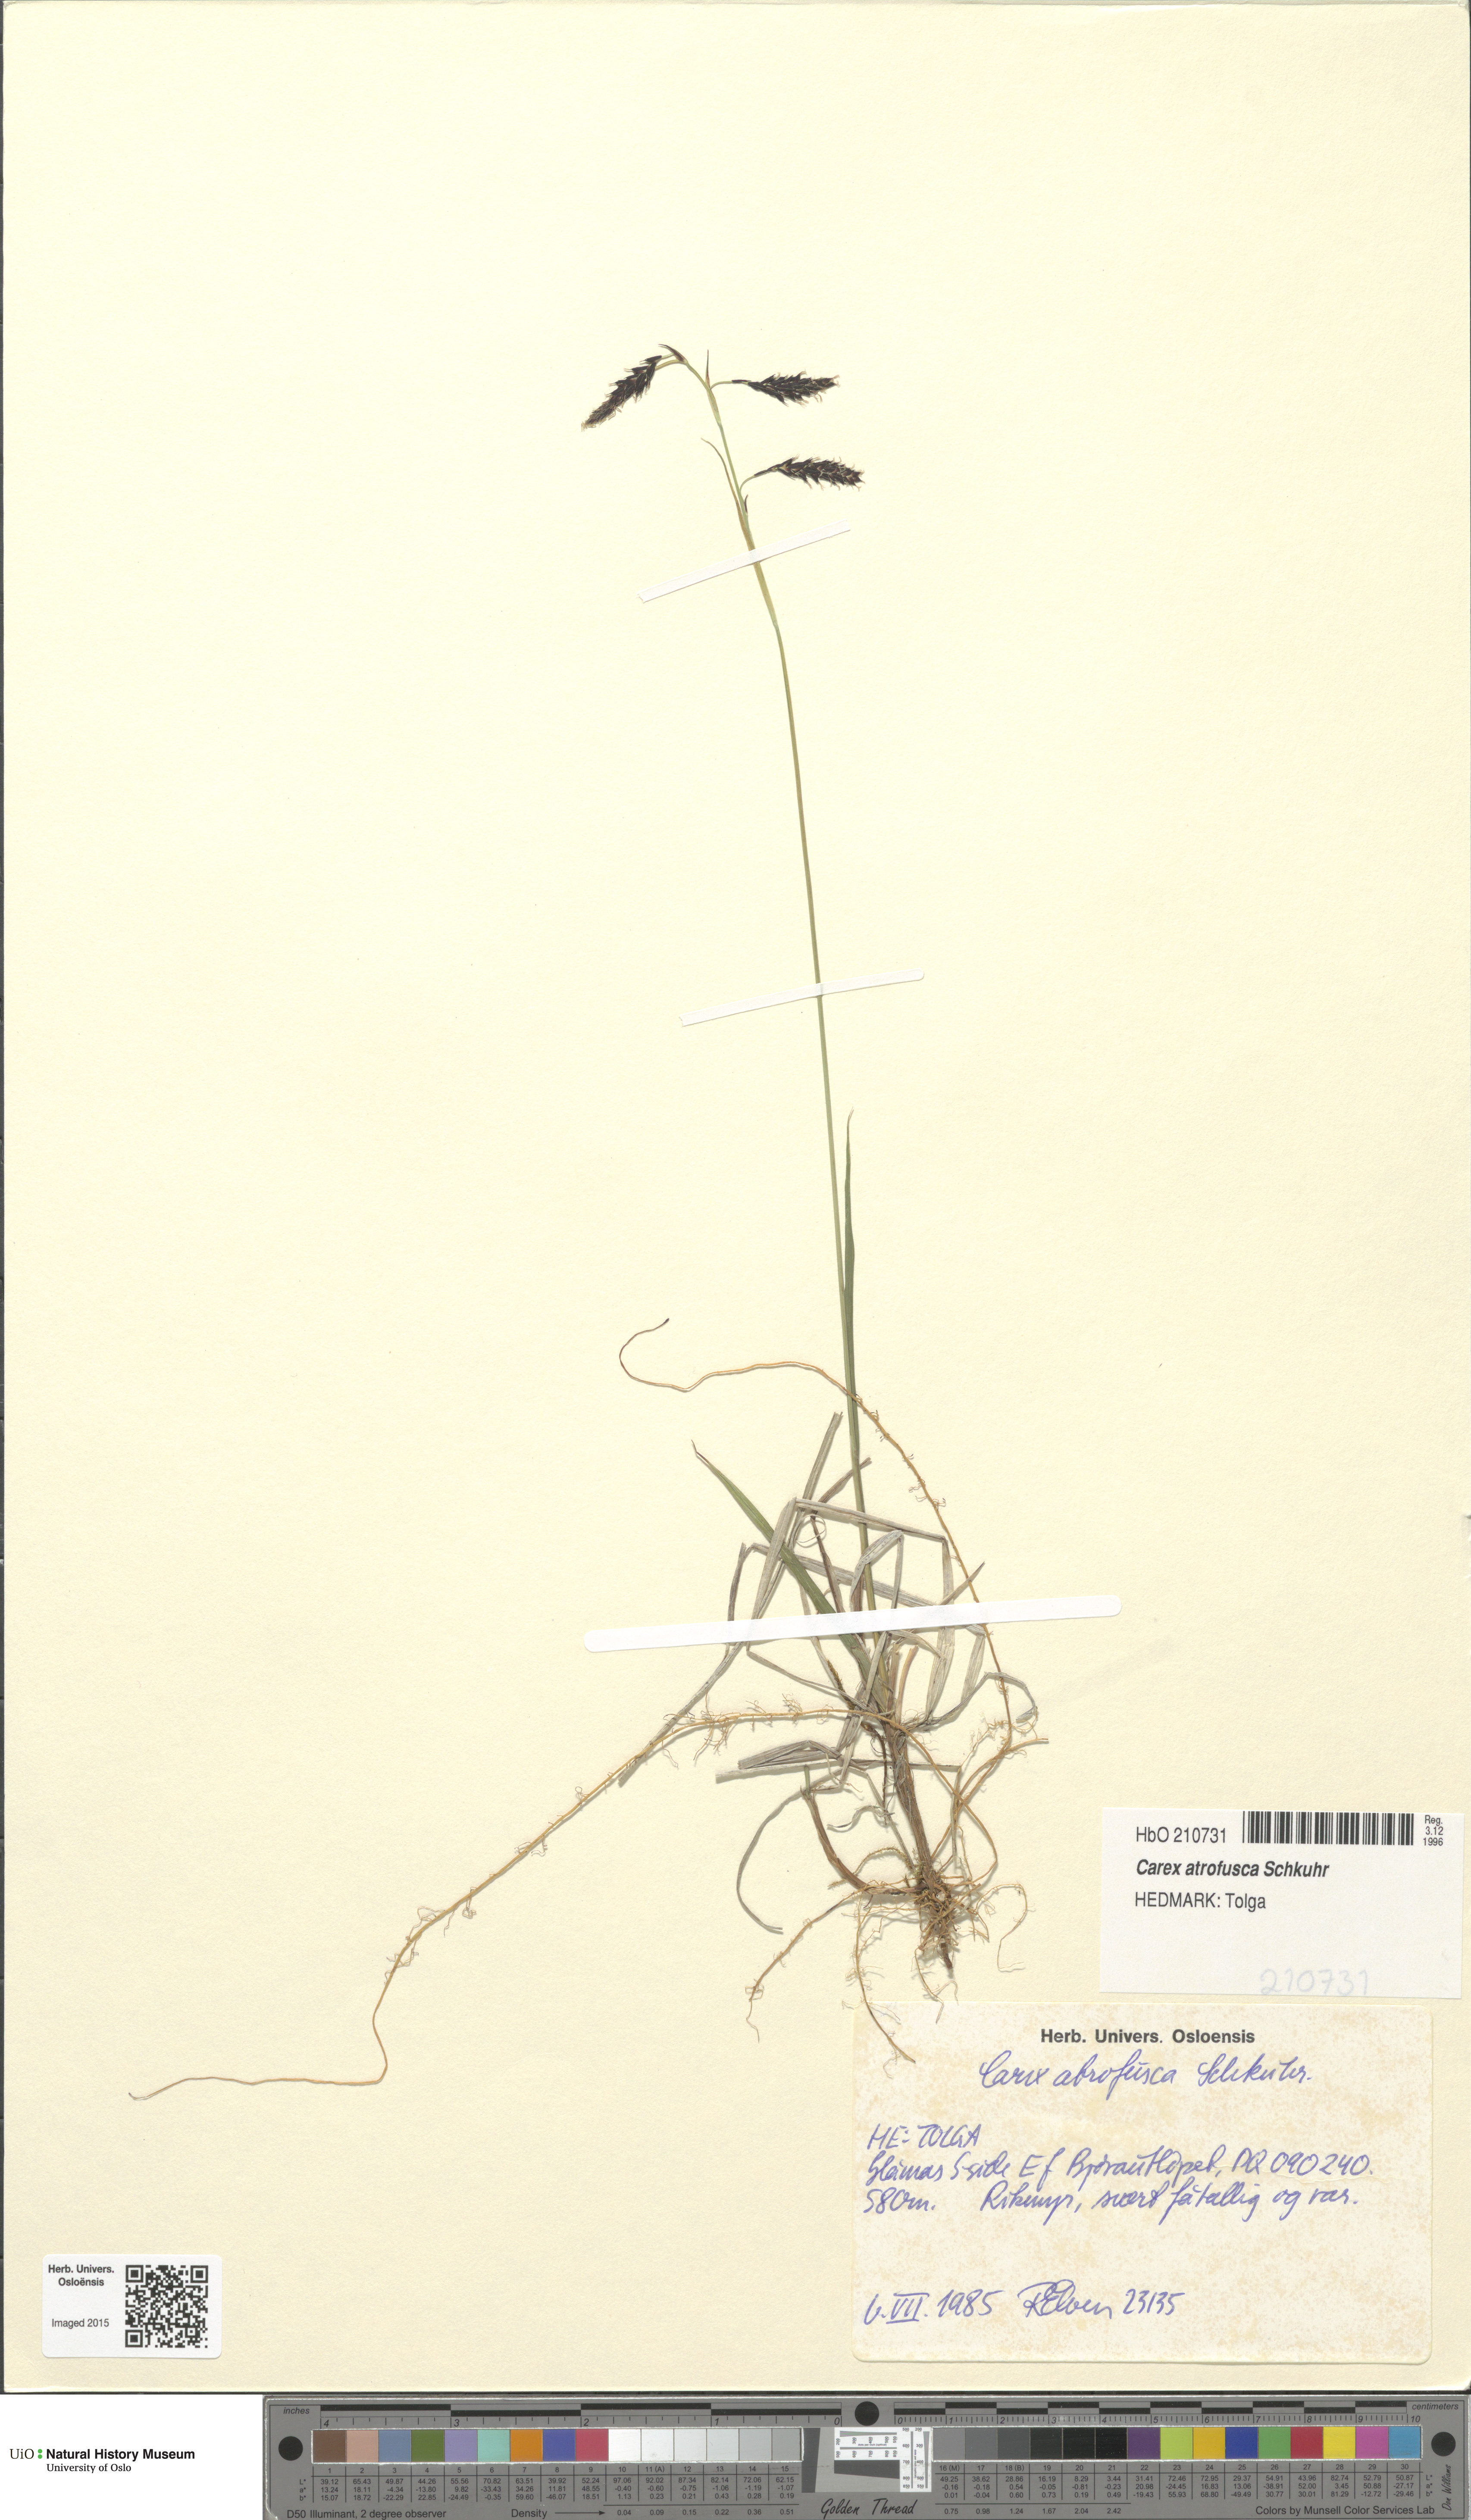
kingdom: Plantae
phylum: Tracheophyta
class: Liliopsida
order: Poales
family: Cyperaceae
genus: Carex
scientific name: Carex atrofusca
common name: Scorched alpine-sedge
